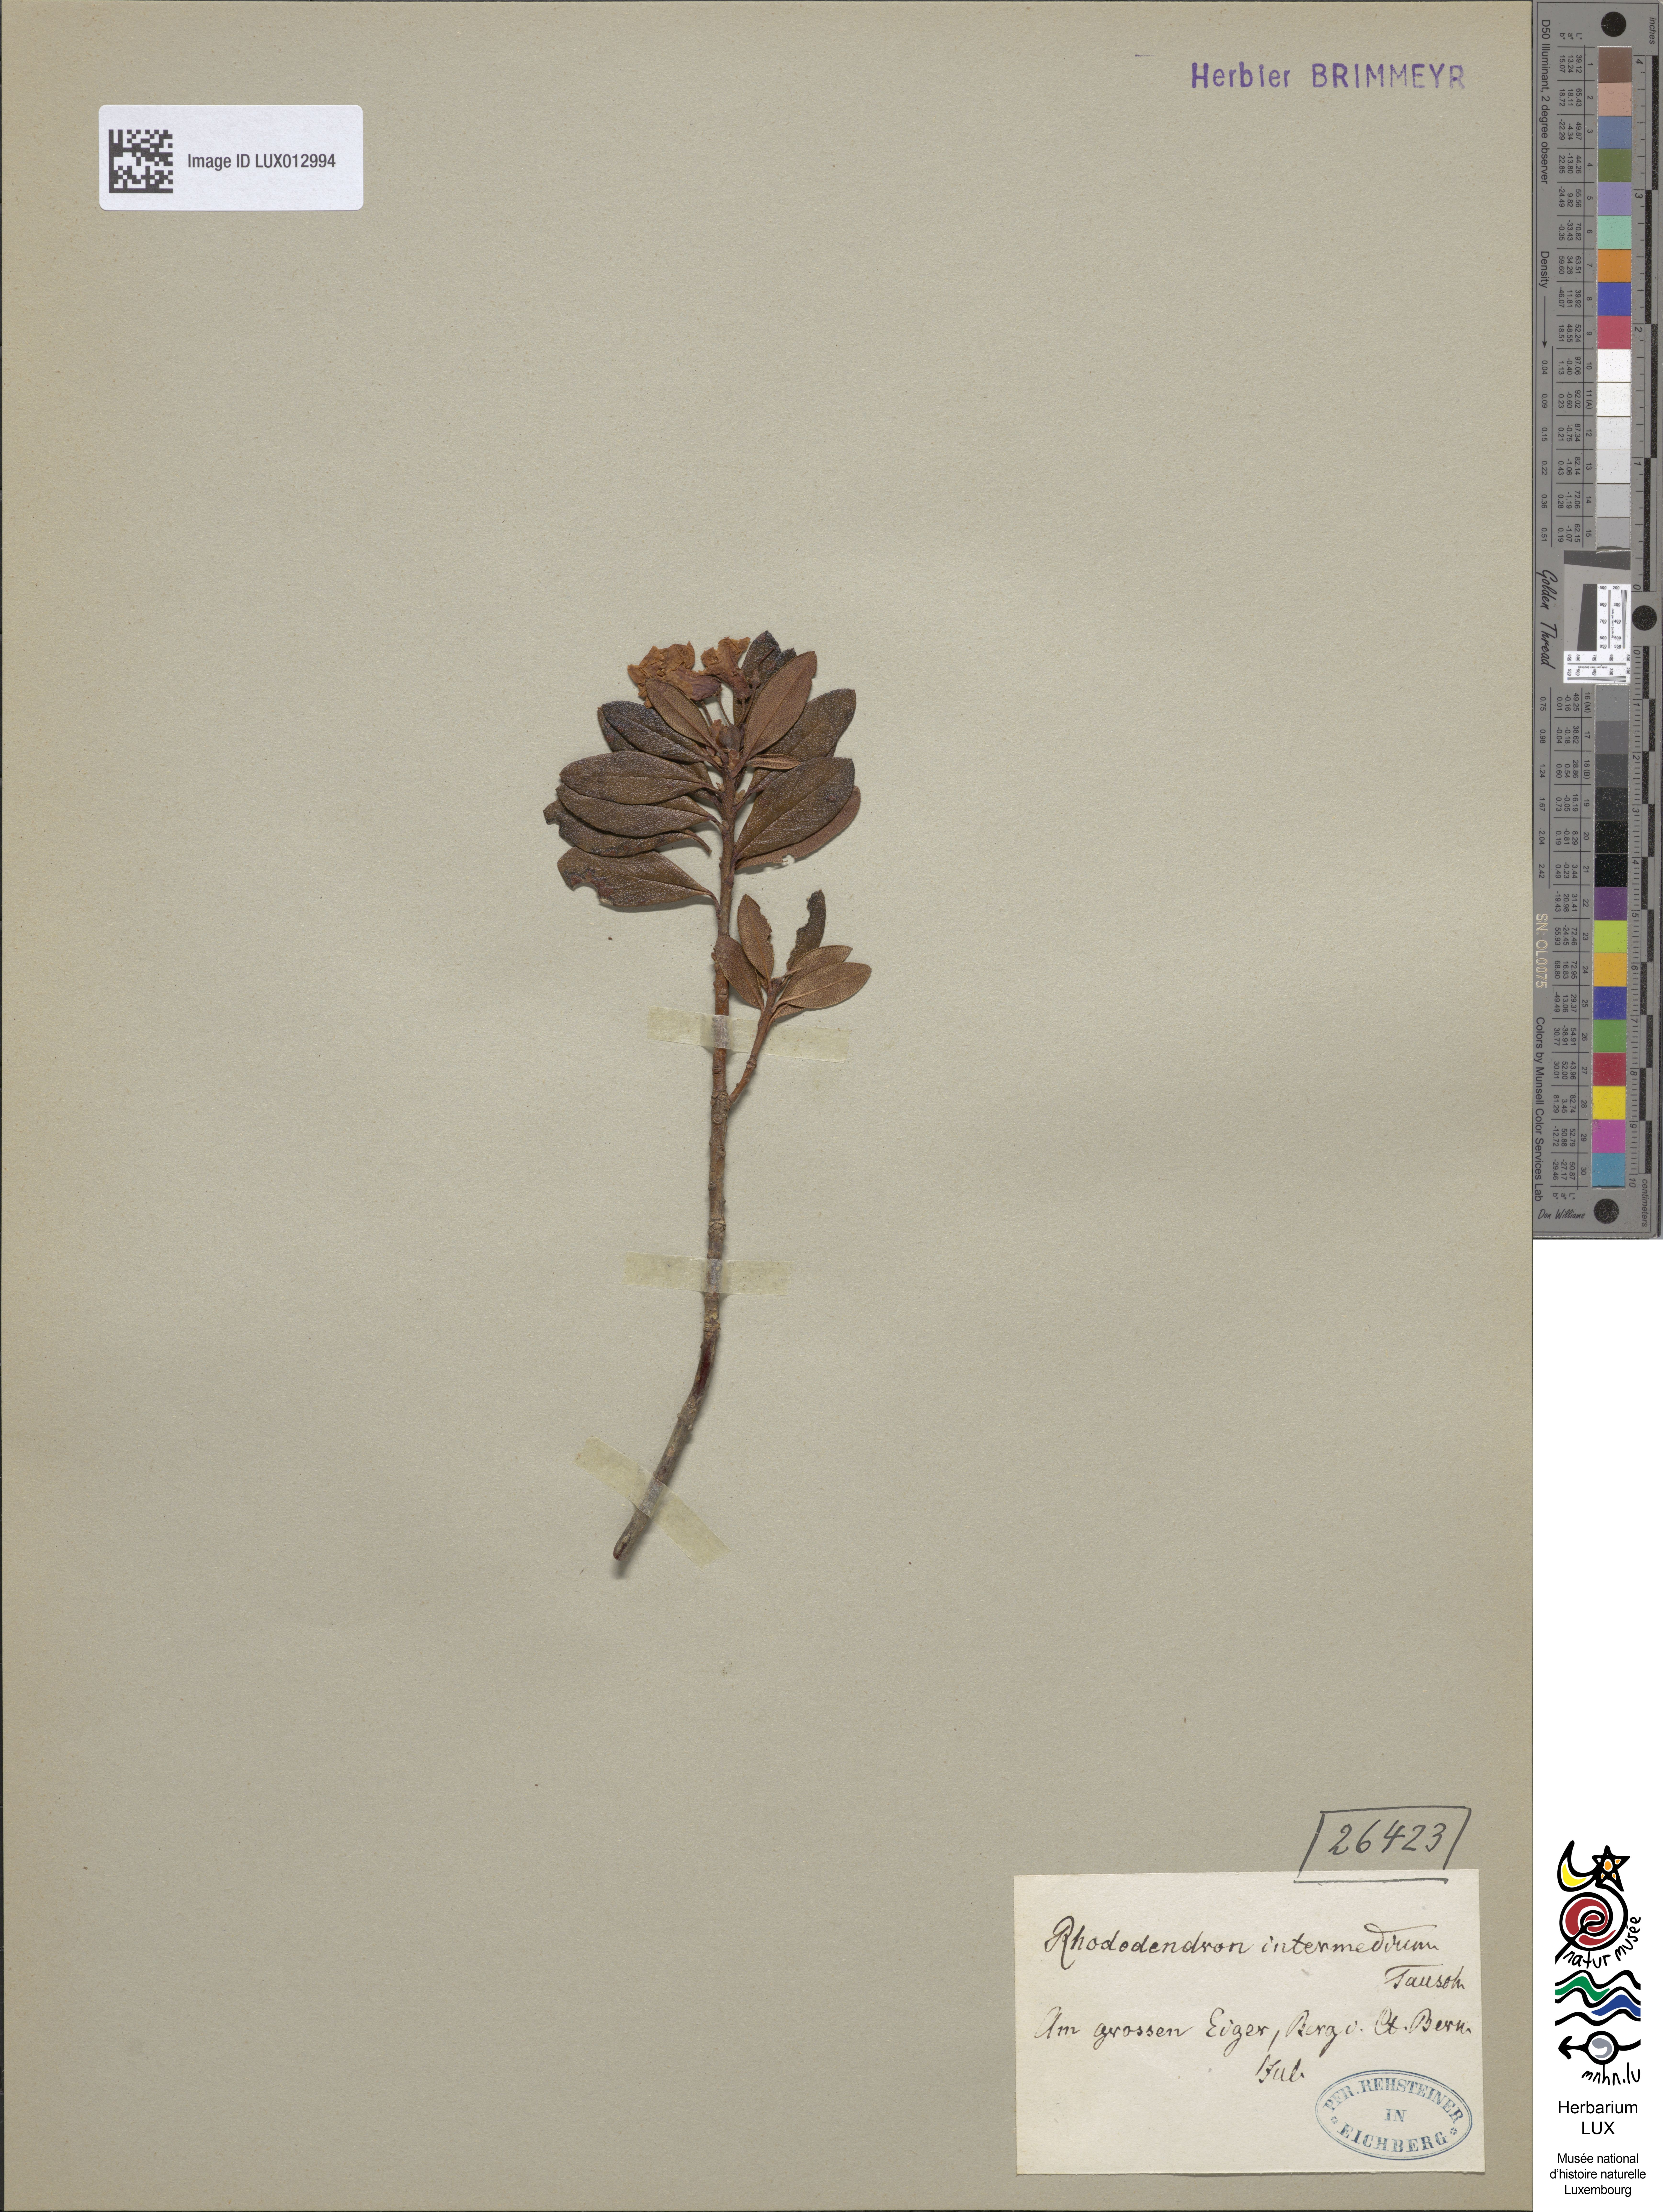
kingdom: Plantae
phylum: Tracheophyta
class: Magnoliopsida
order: Ericales
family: Ericaceae
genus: Rhododendron
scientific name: Rhododendron intermedium
